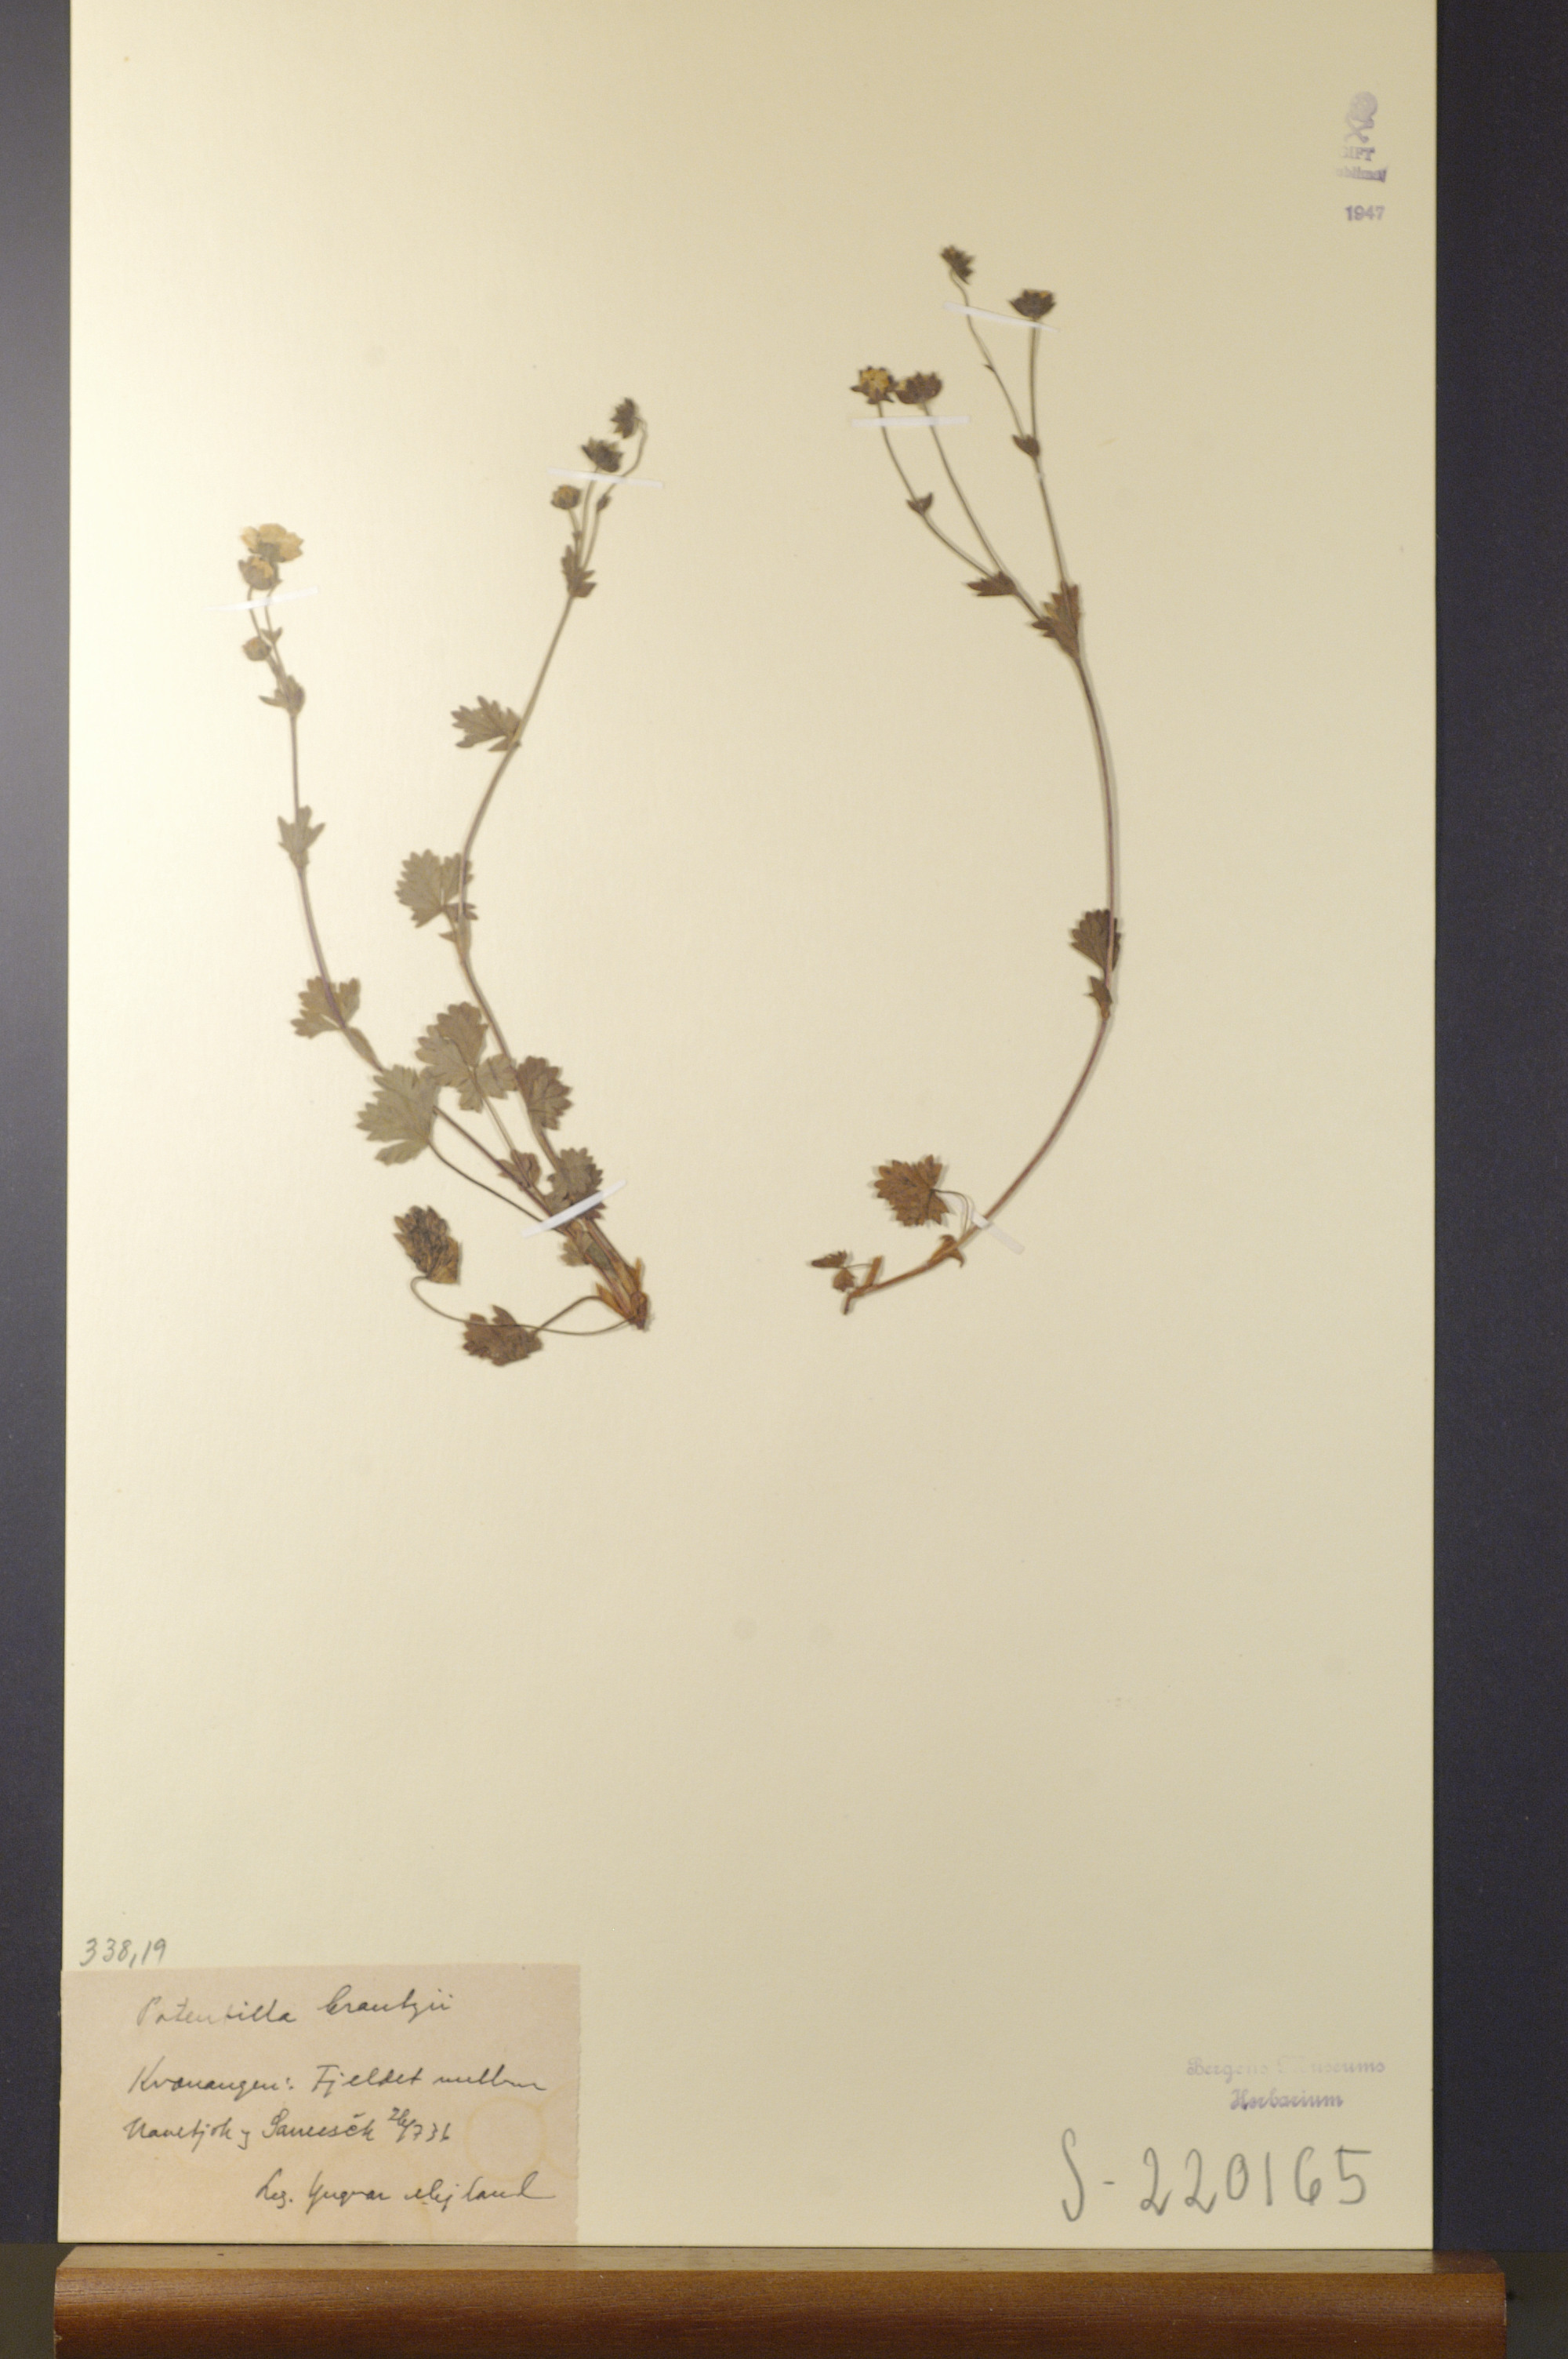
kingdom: Plantae
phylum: Tracheophyta
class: Magnoliopsida
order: Rosales
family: Rosaceae
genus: Potentilla
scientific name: Potentilla crantzii
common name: Alpine cinquefoil
